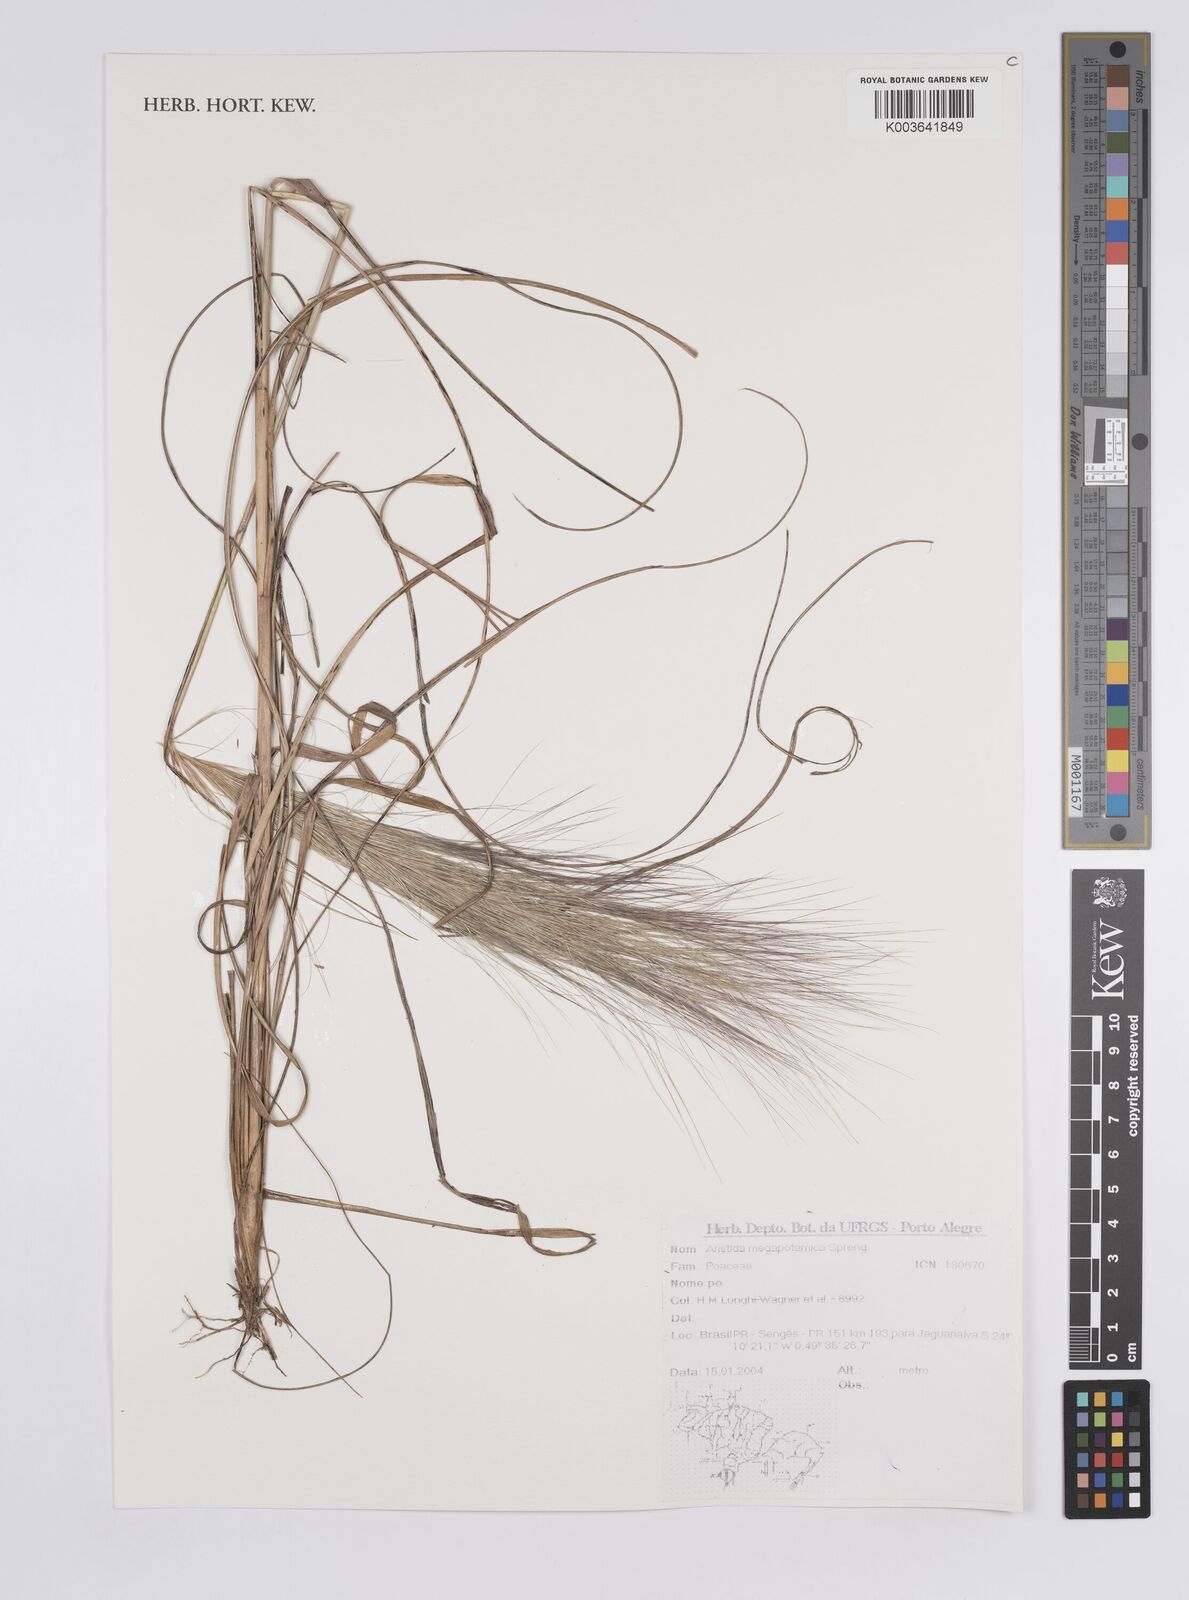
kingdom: Plantae
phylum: Tracheophyta
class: Liliopsida
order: Poales
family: Poaceae
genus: Aristida
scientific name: Aristida megapotamica
